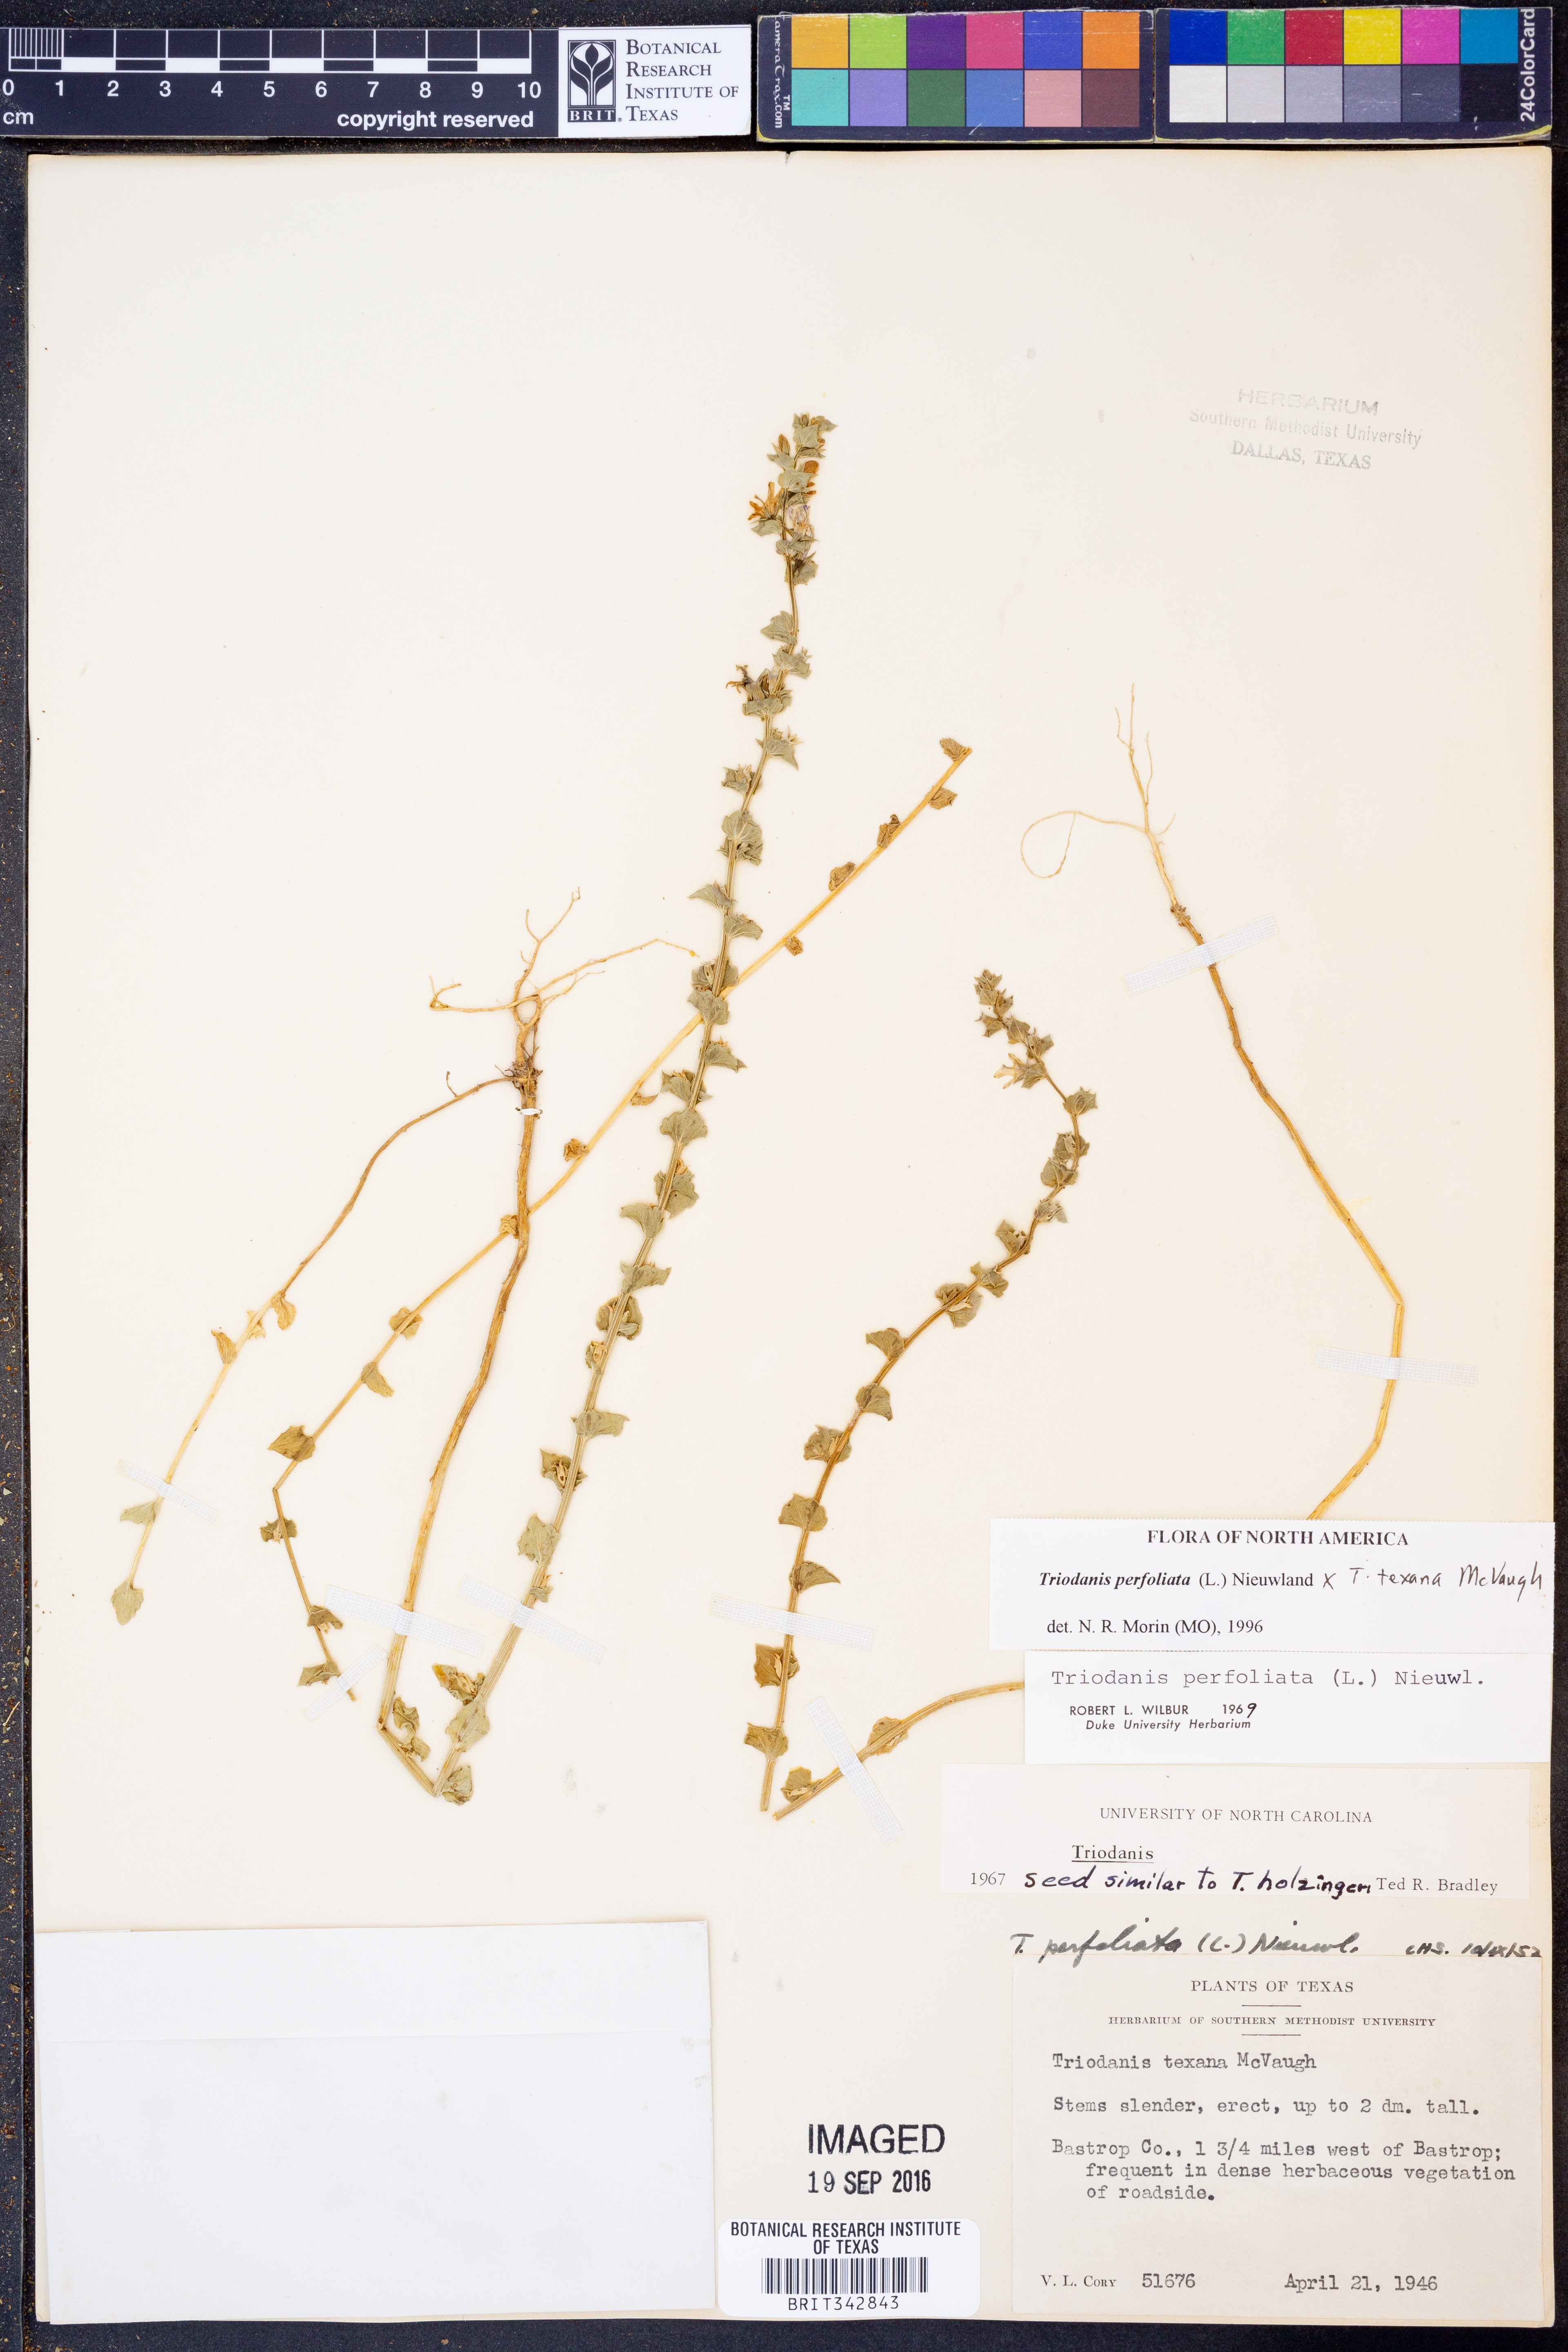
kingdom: Plantae
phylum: Tracheophyta
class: Magnoliopsida
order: Asterales
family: Campanulaceae
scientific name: Campanulaceae
